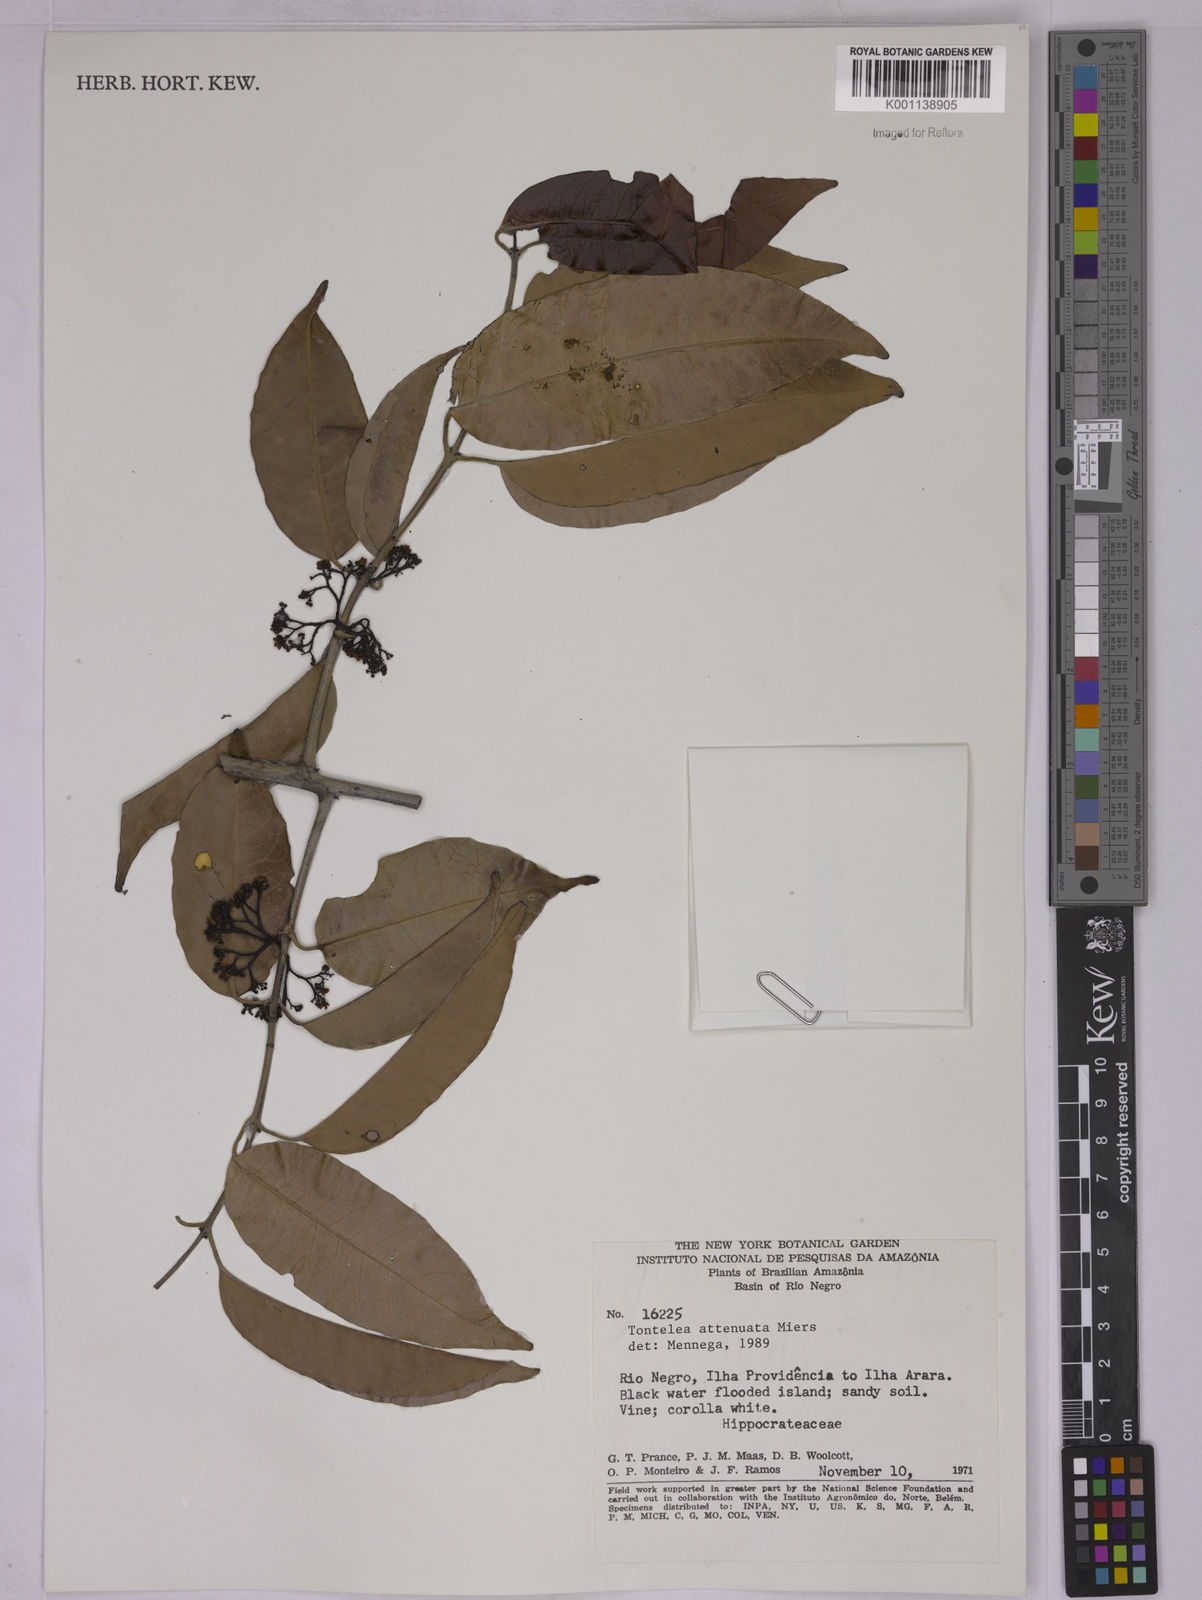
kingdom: Plantae
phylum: Tracheophyta
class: Magnoliopsida
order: Celastrales
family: Celastraceae
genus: Tontelea
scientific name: Tontelea attenuata
